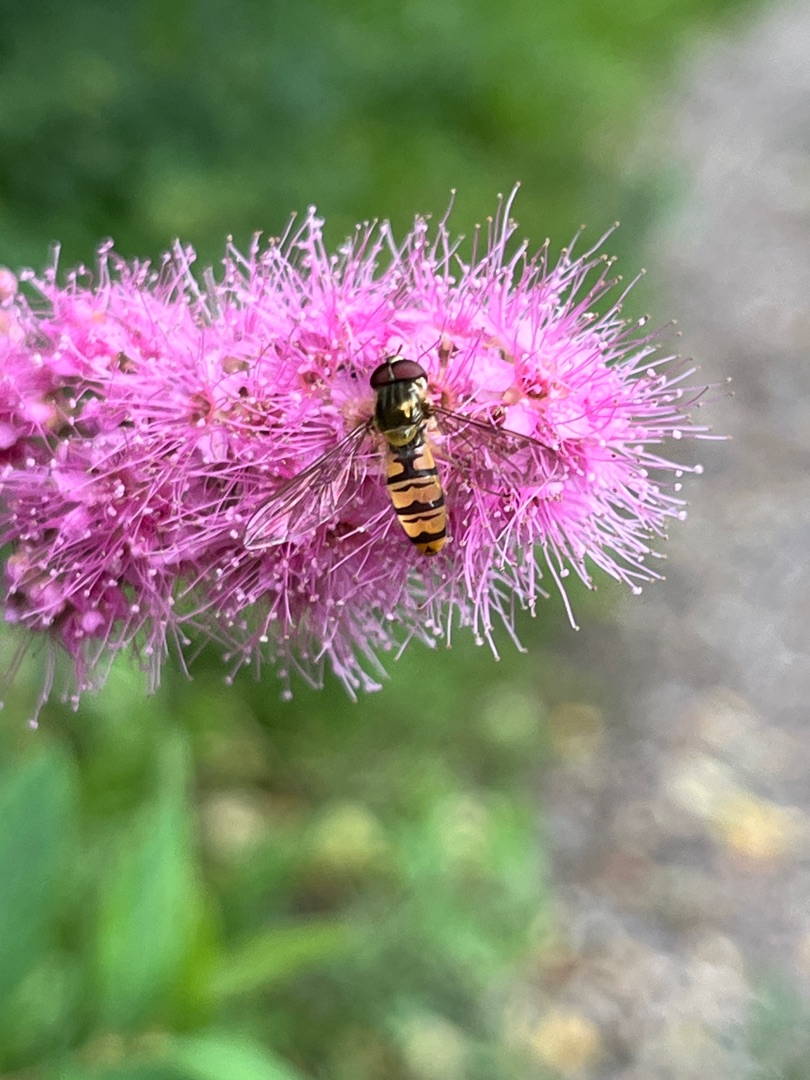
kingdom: Animalia
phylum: Arthropoda
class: Insecta
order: Diptera
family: Syrphidae
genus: Episyrphus
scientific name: Episyrphus balteatus
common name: Dobbeltbåndet svirreflue
